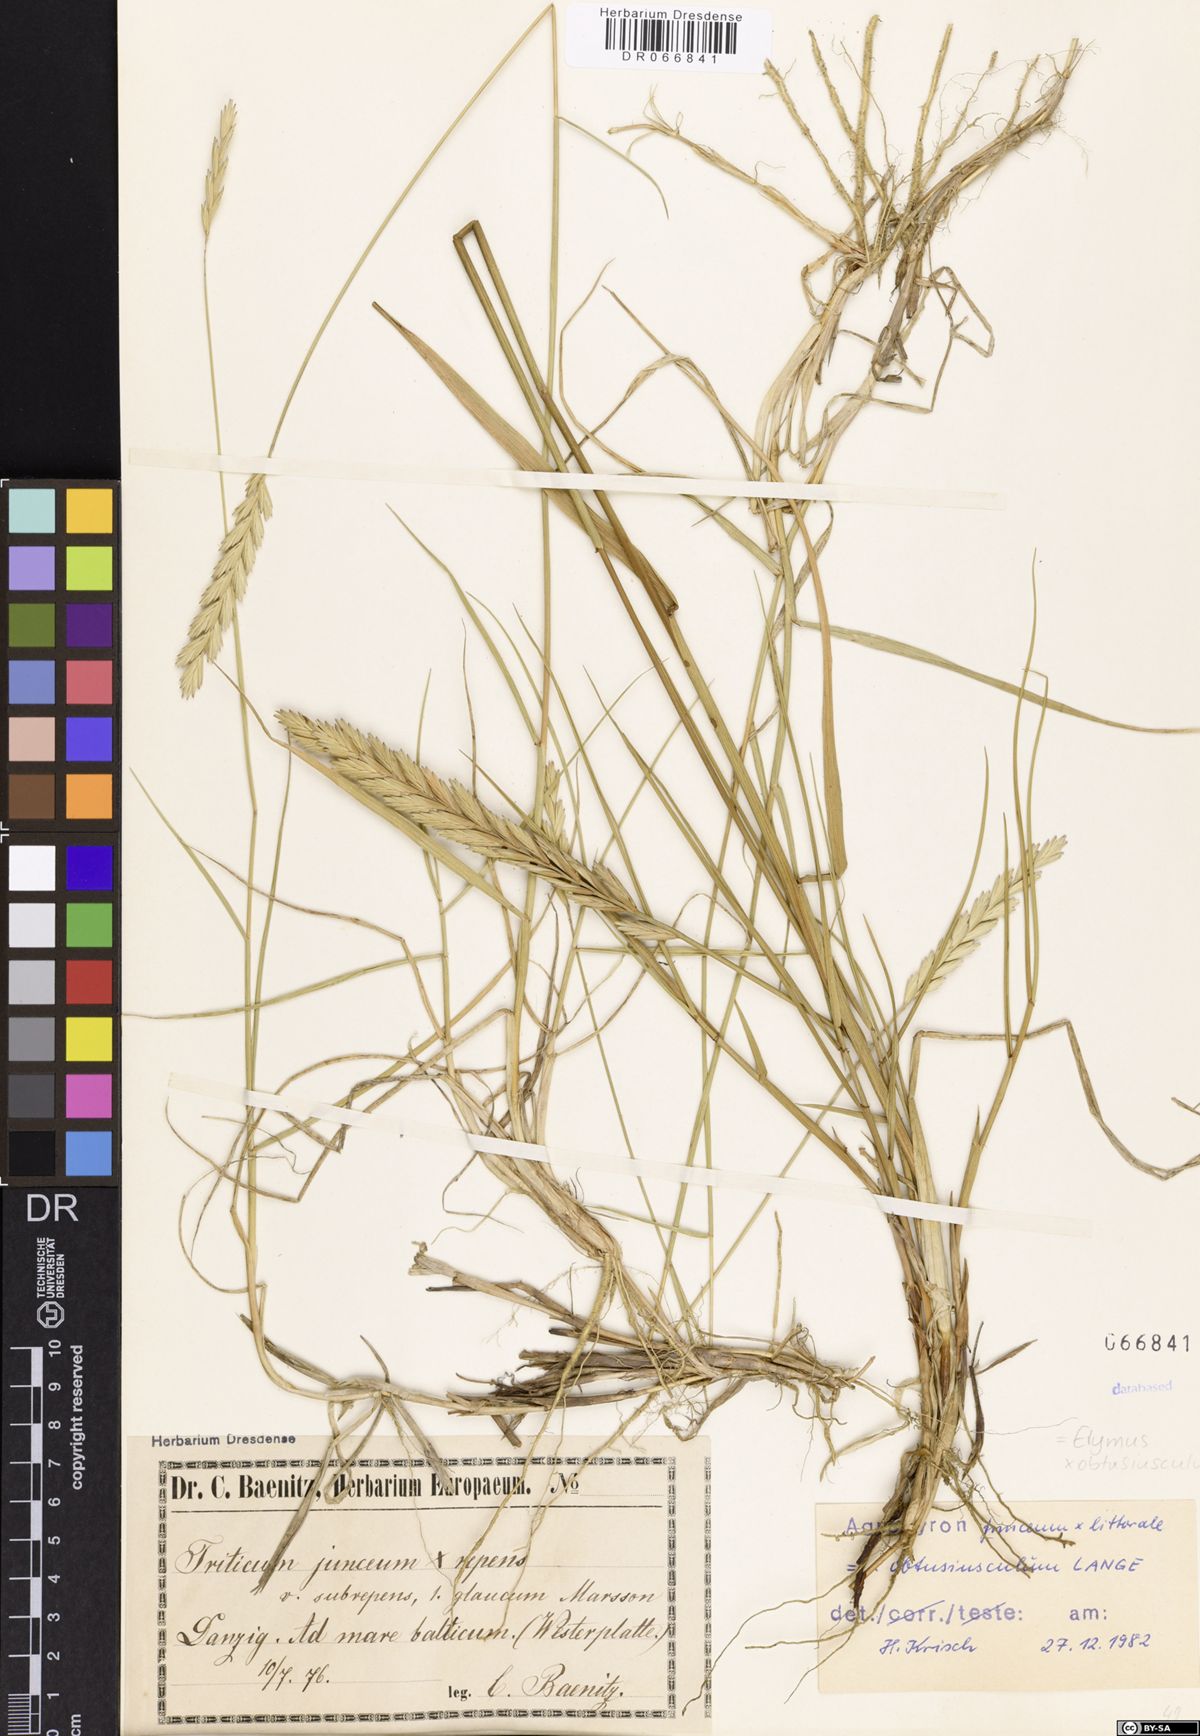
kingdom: Plantae
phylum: Tracheophyta
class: Liliopsida
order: Poales
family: Poaceae
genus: Thinoelymus
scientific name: Thinoelymus obtusiusculus
